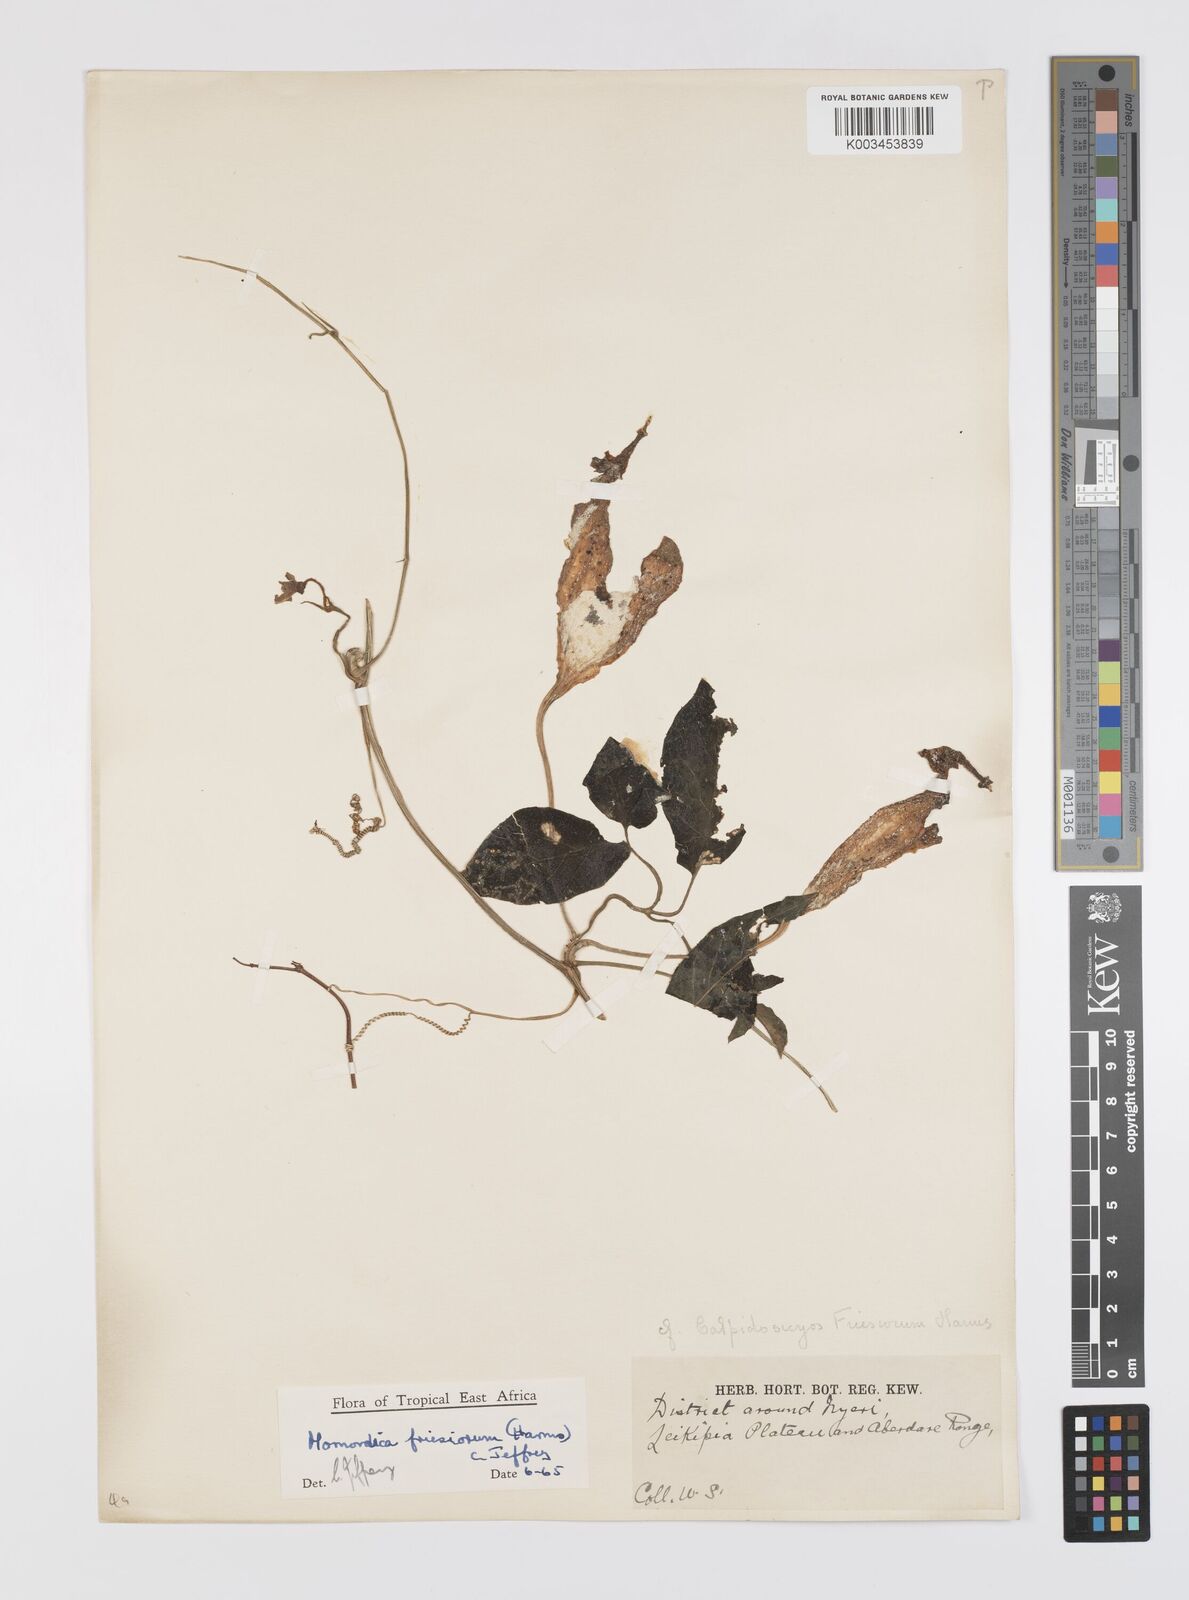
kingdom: Plantae
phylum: Tracheophyta
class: Magnoliopsida
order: Cucurbitales
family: Cucurbitaceae
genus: Momordica
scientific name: Momordica friesiorum
